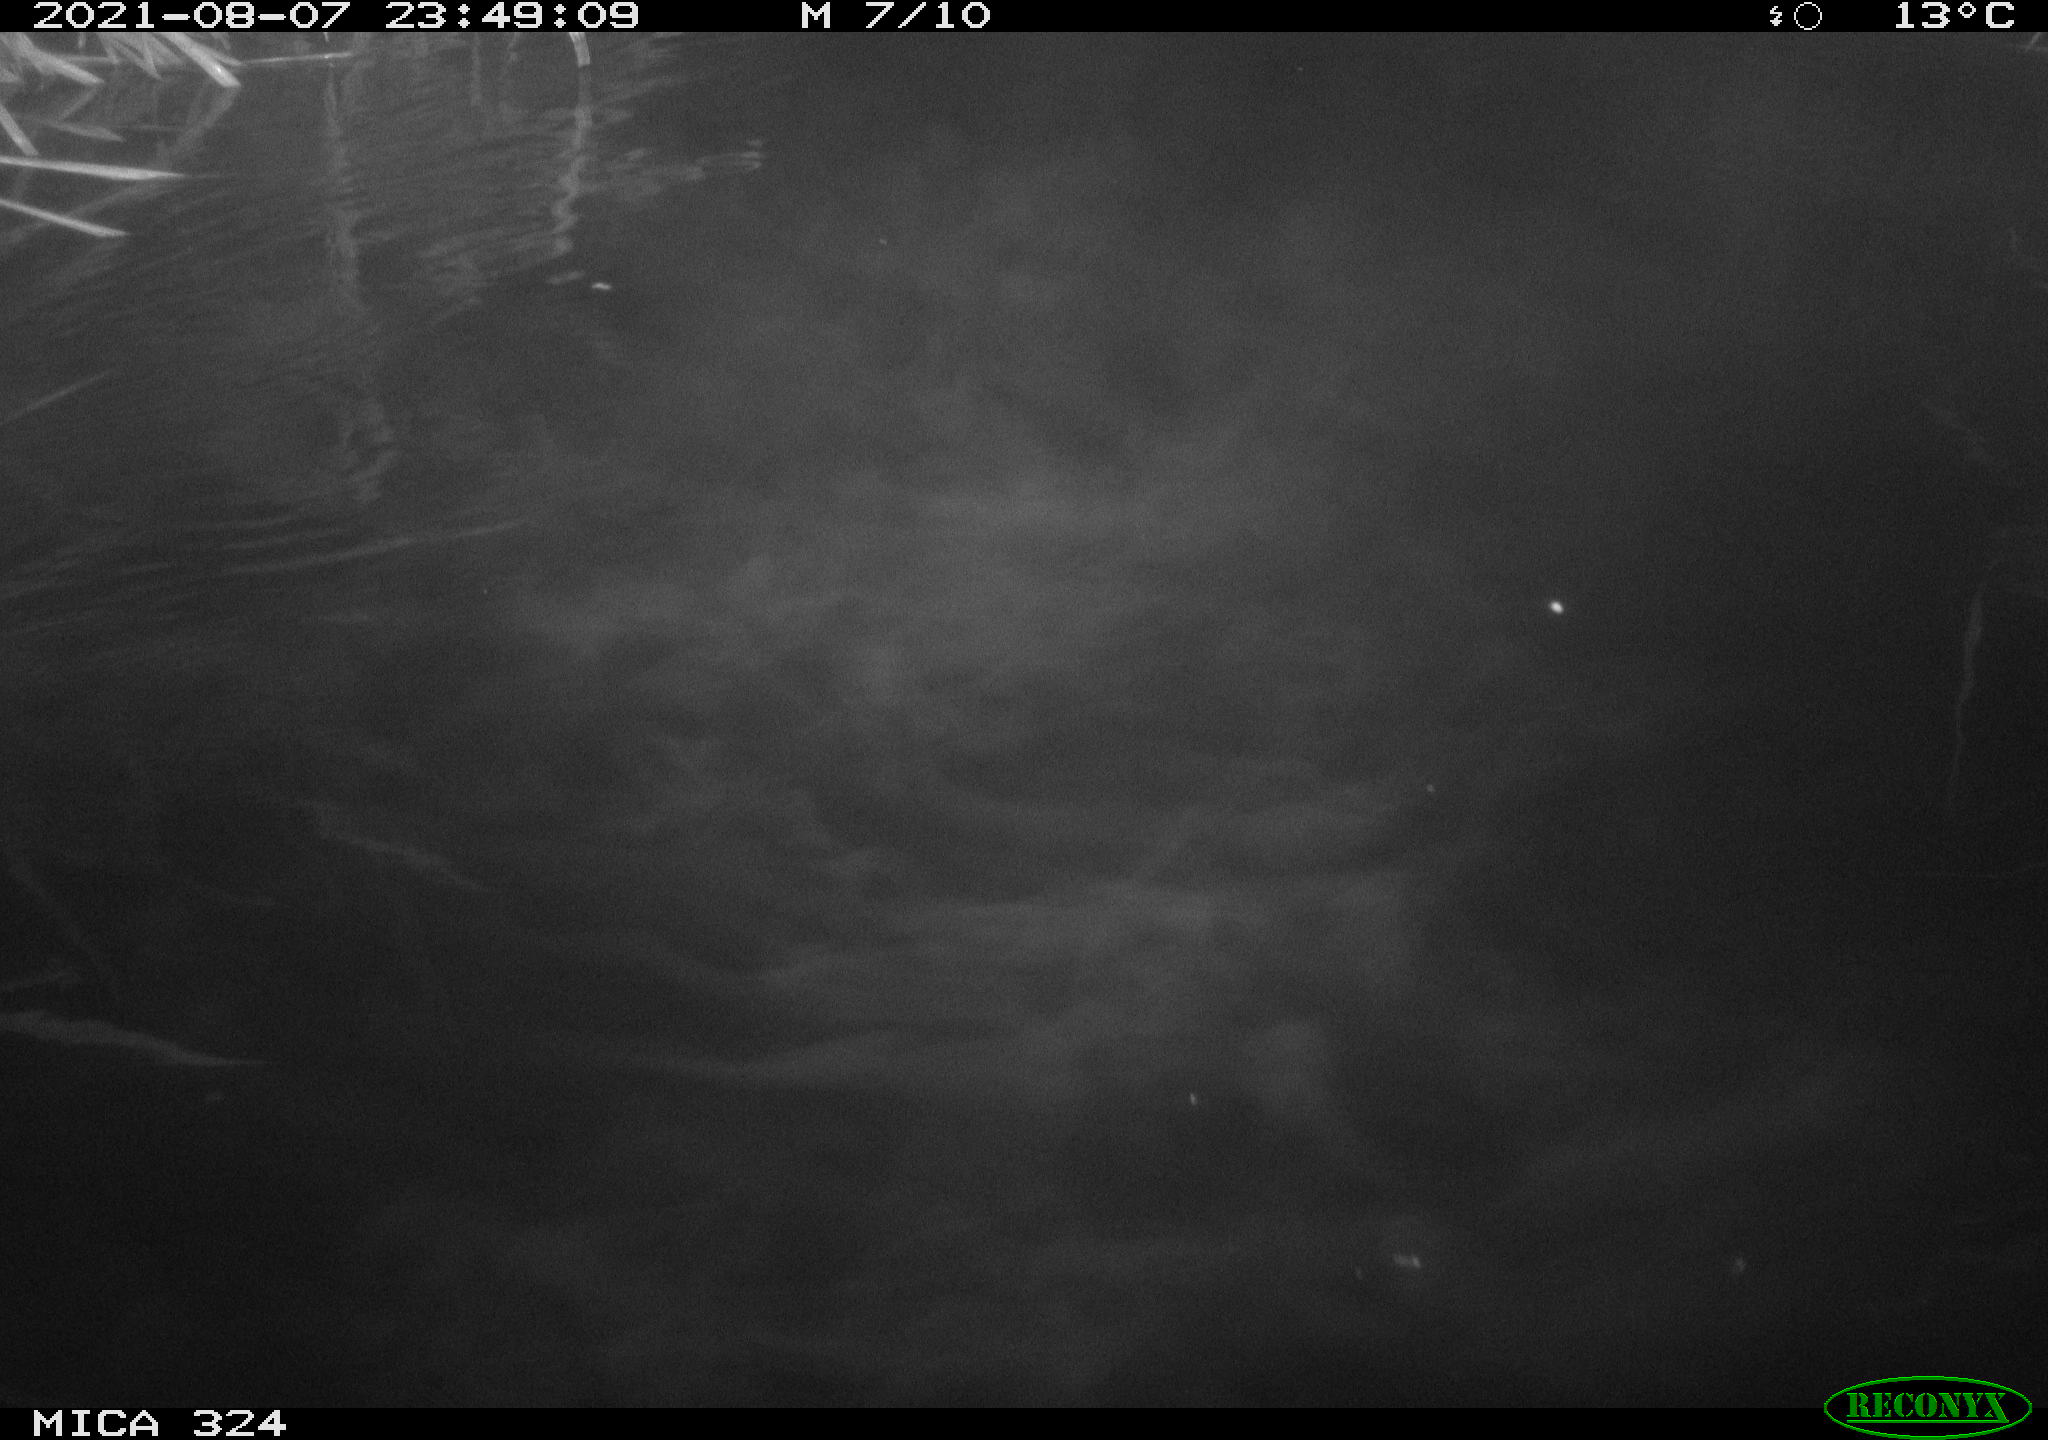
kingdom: Animalia
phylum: Chordata
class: Mammalia
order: Rodentia
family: Cricetidae
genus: Ondatra
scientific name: Ondatra zibethicus
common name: Muskrat
